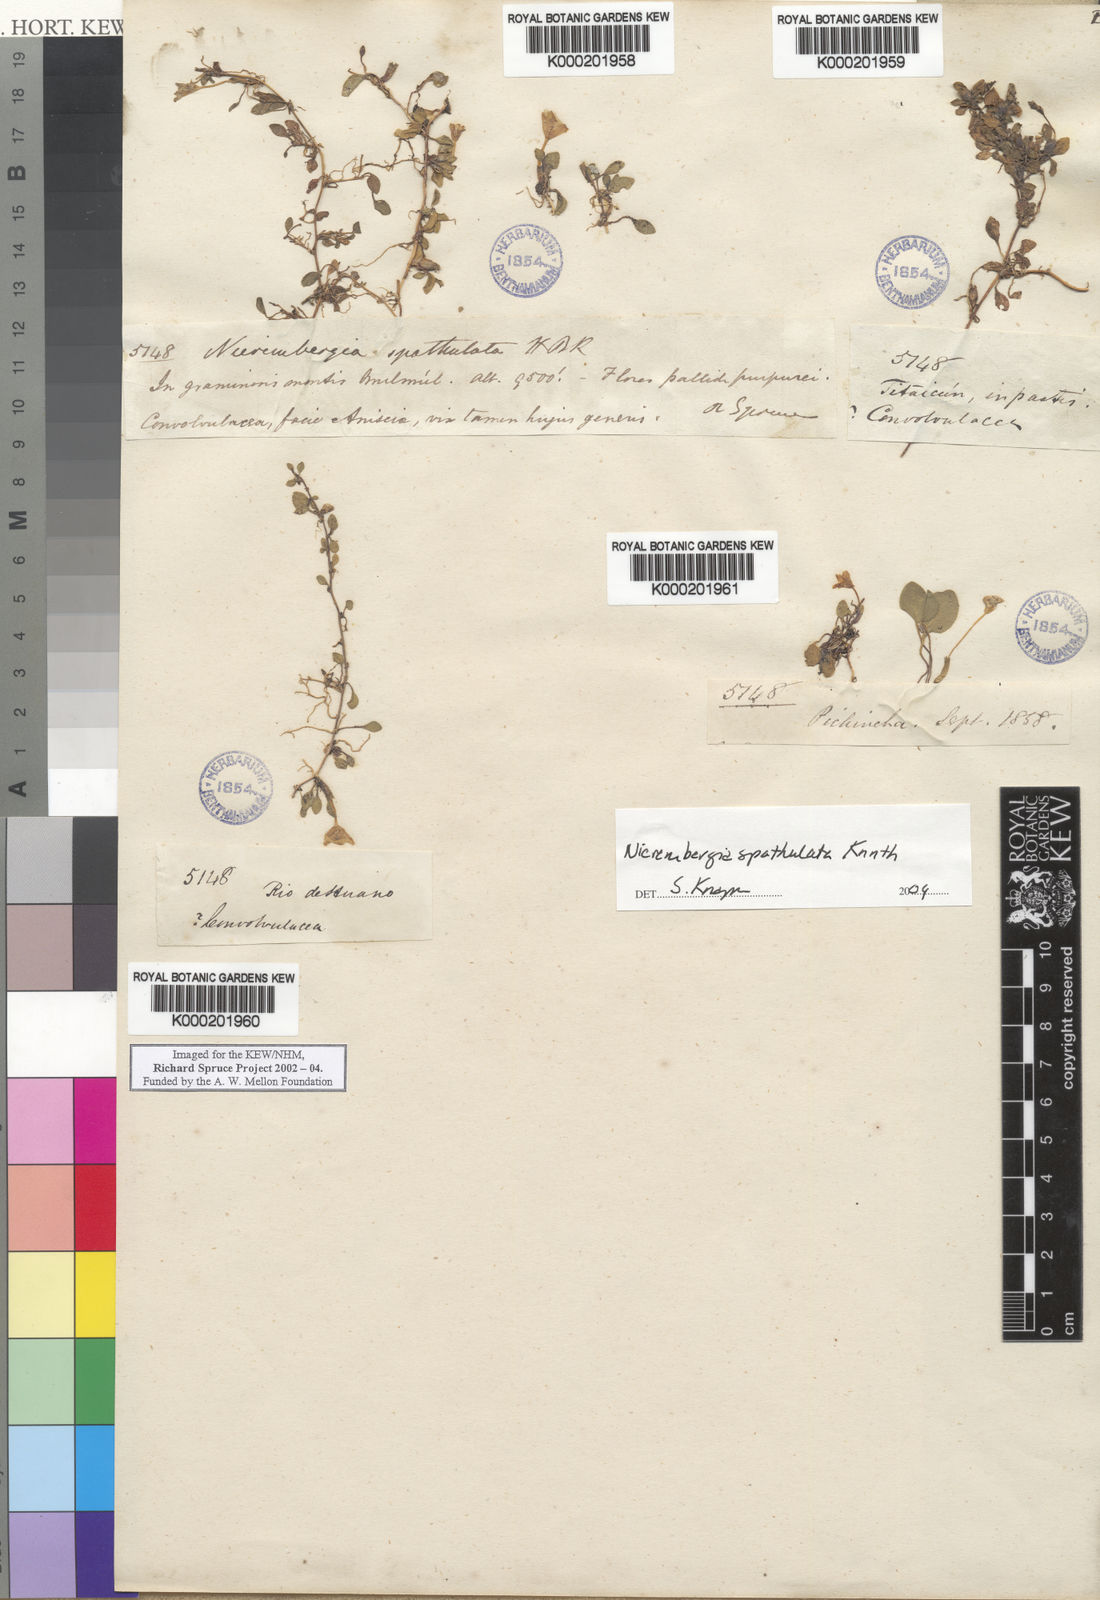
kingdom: Plantae
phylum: Tracheophyta
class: Magnoliopsida
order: Solanales
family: Solanaceae
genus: Nierembergia
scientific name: Nierembergia repens
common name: Whitecup
